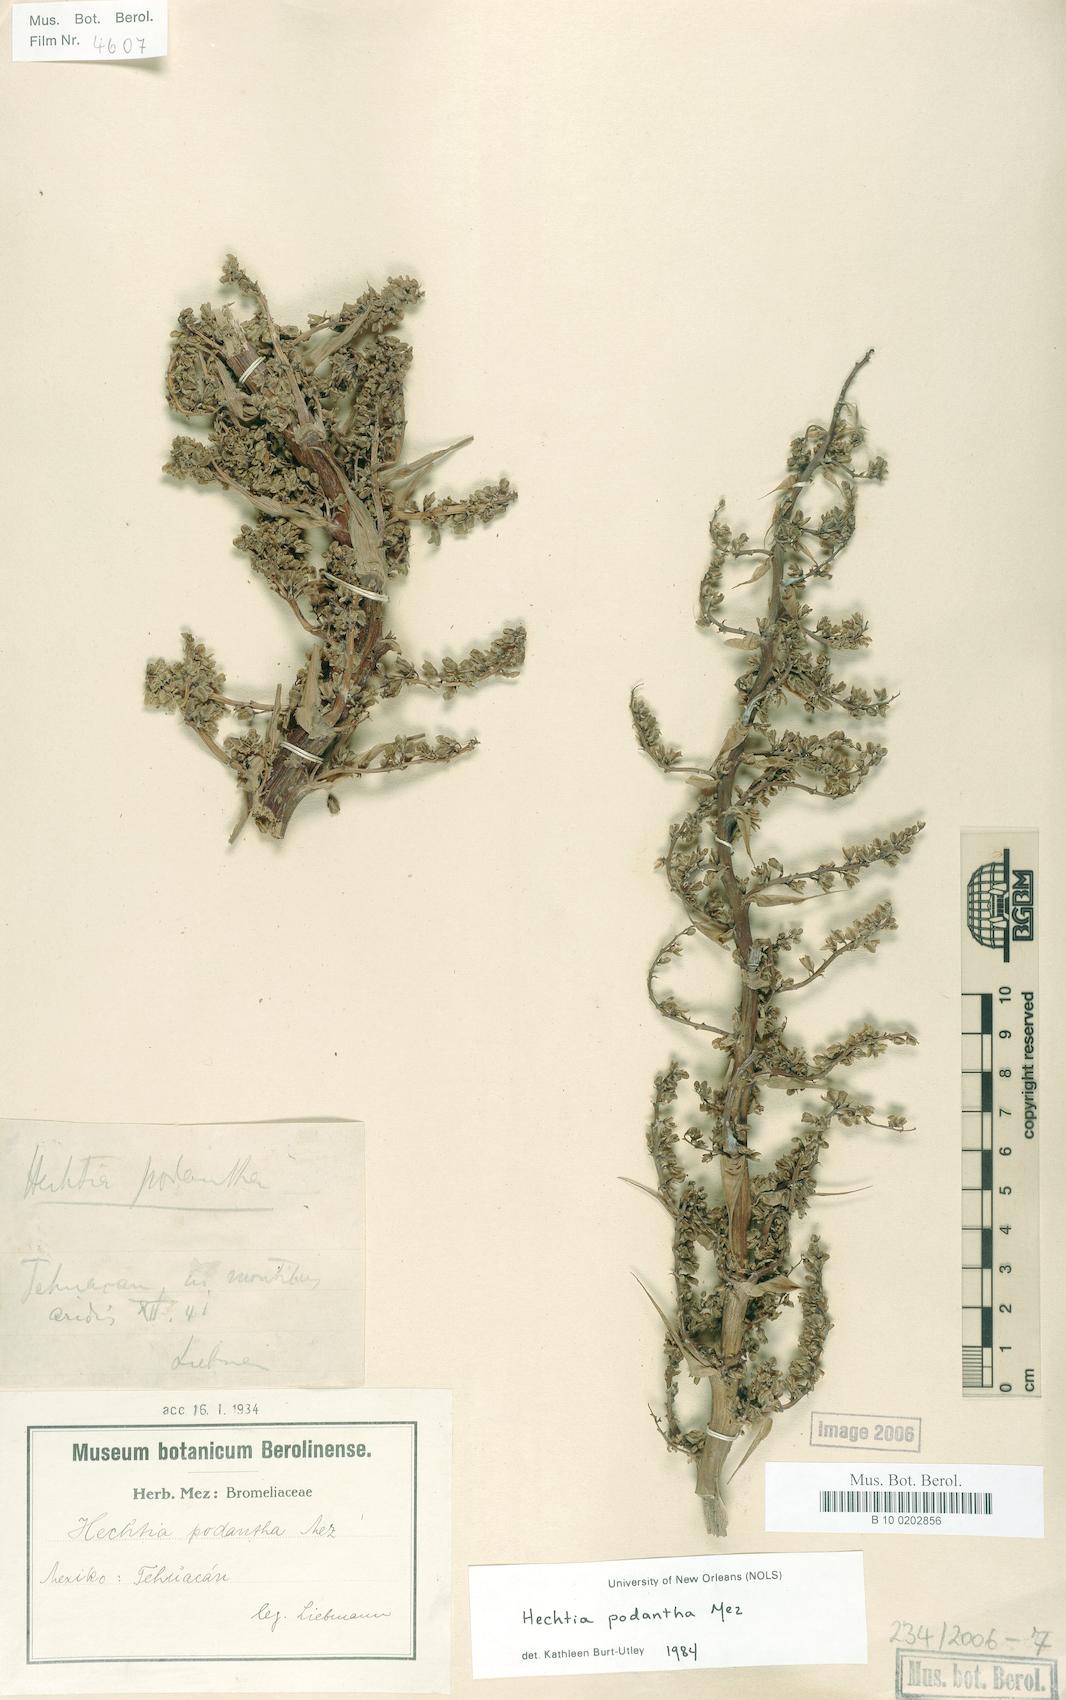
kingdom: Plantae
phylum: Tracheophyta
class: Liliopsida
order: Poales
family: Bromeliaceae
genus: Hechtia
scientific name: Hechtia podantha
